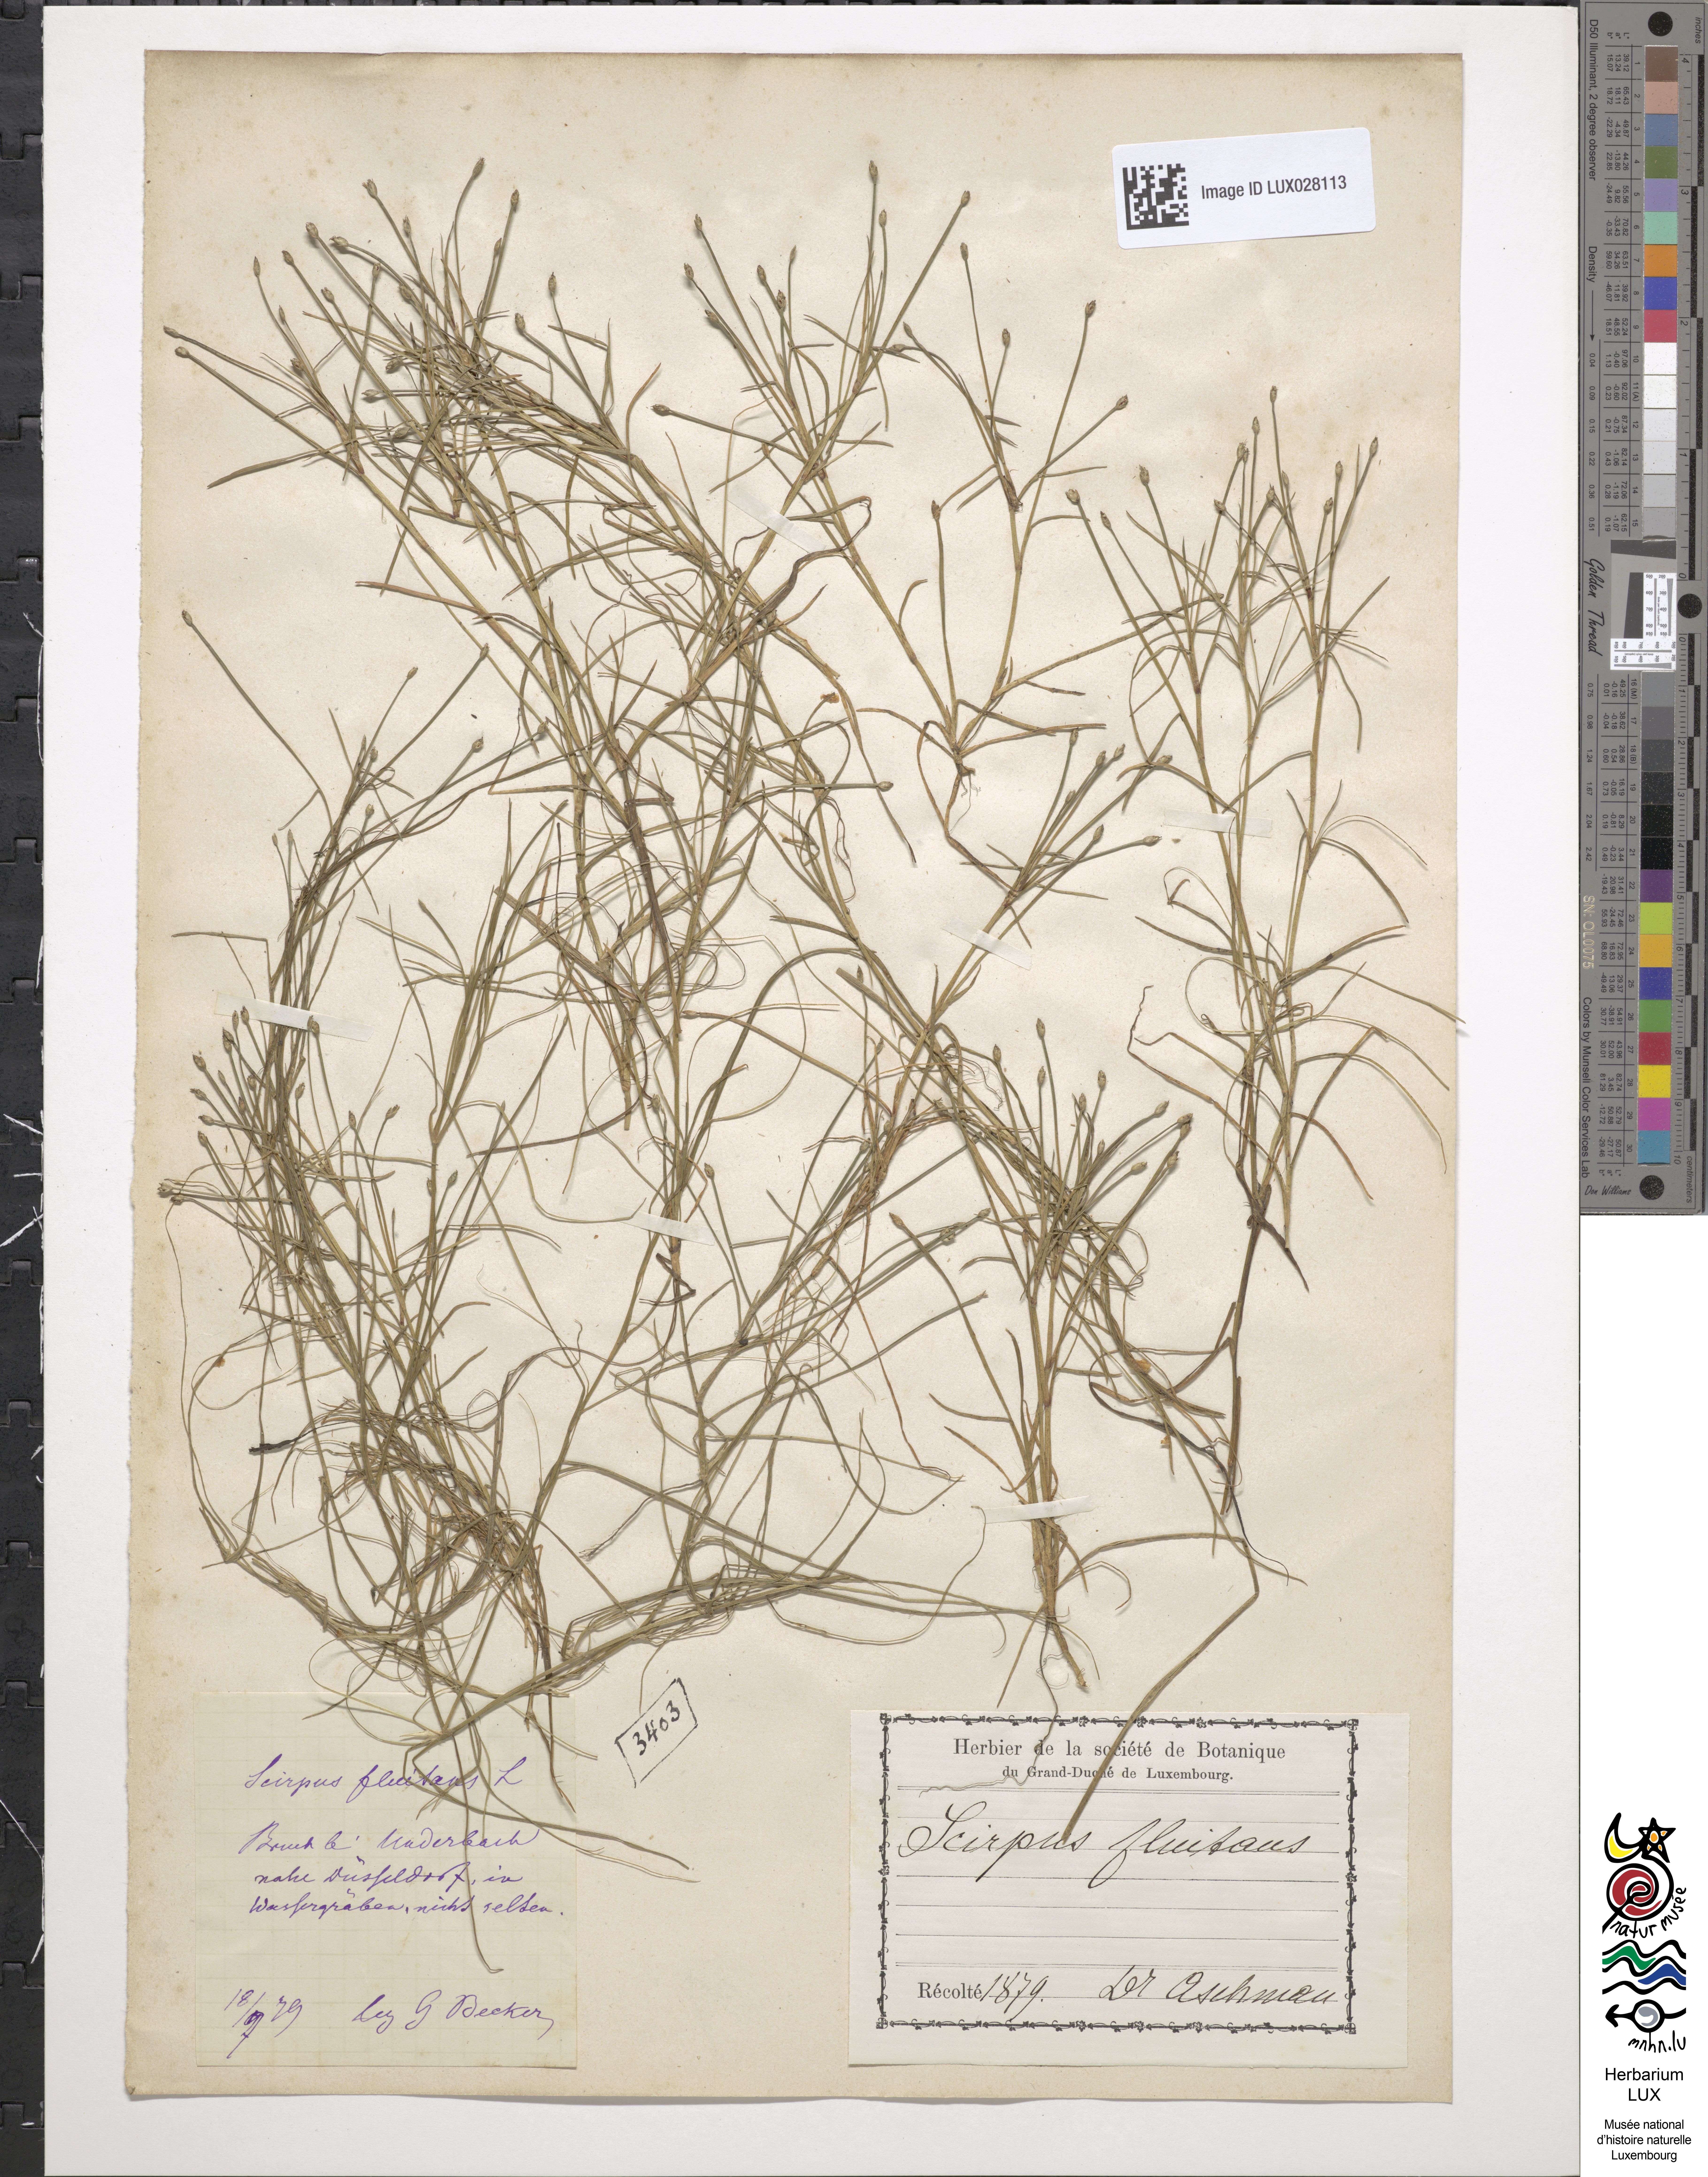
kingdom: Plantae
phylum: Tracheophyta
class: Liliopsida
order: Poales
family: Cyperaceae
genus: Isolepis
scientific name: Isolepis fluitans
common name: Floating club-rush
